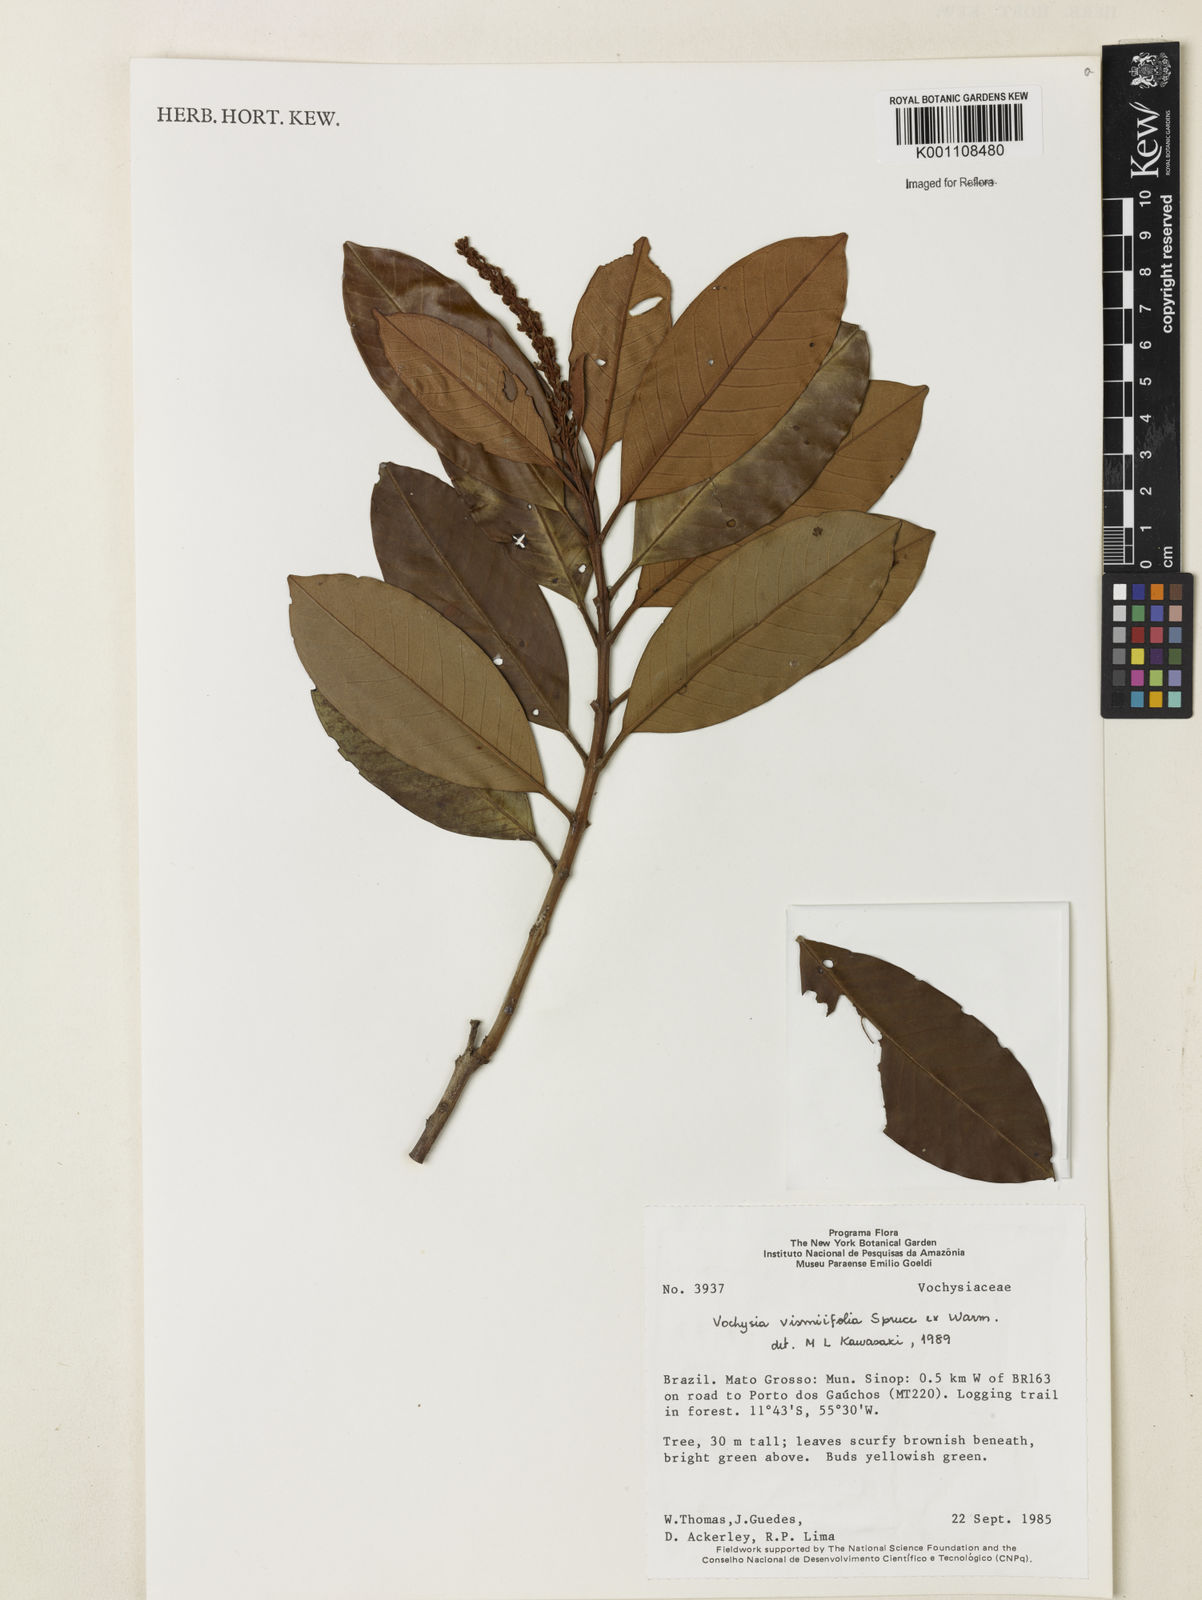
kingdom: Plantae
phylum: Tracheophyta
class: Magnoliopsida
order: Myrtales
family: Vochysiaceae
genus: Vochysia
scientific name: Vochysia vismiifolia
